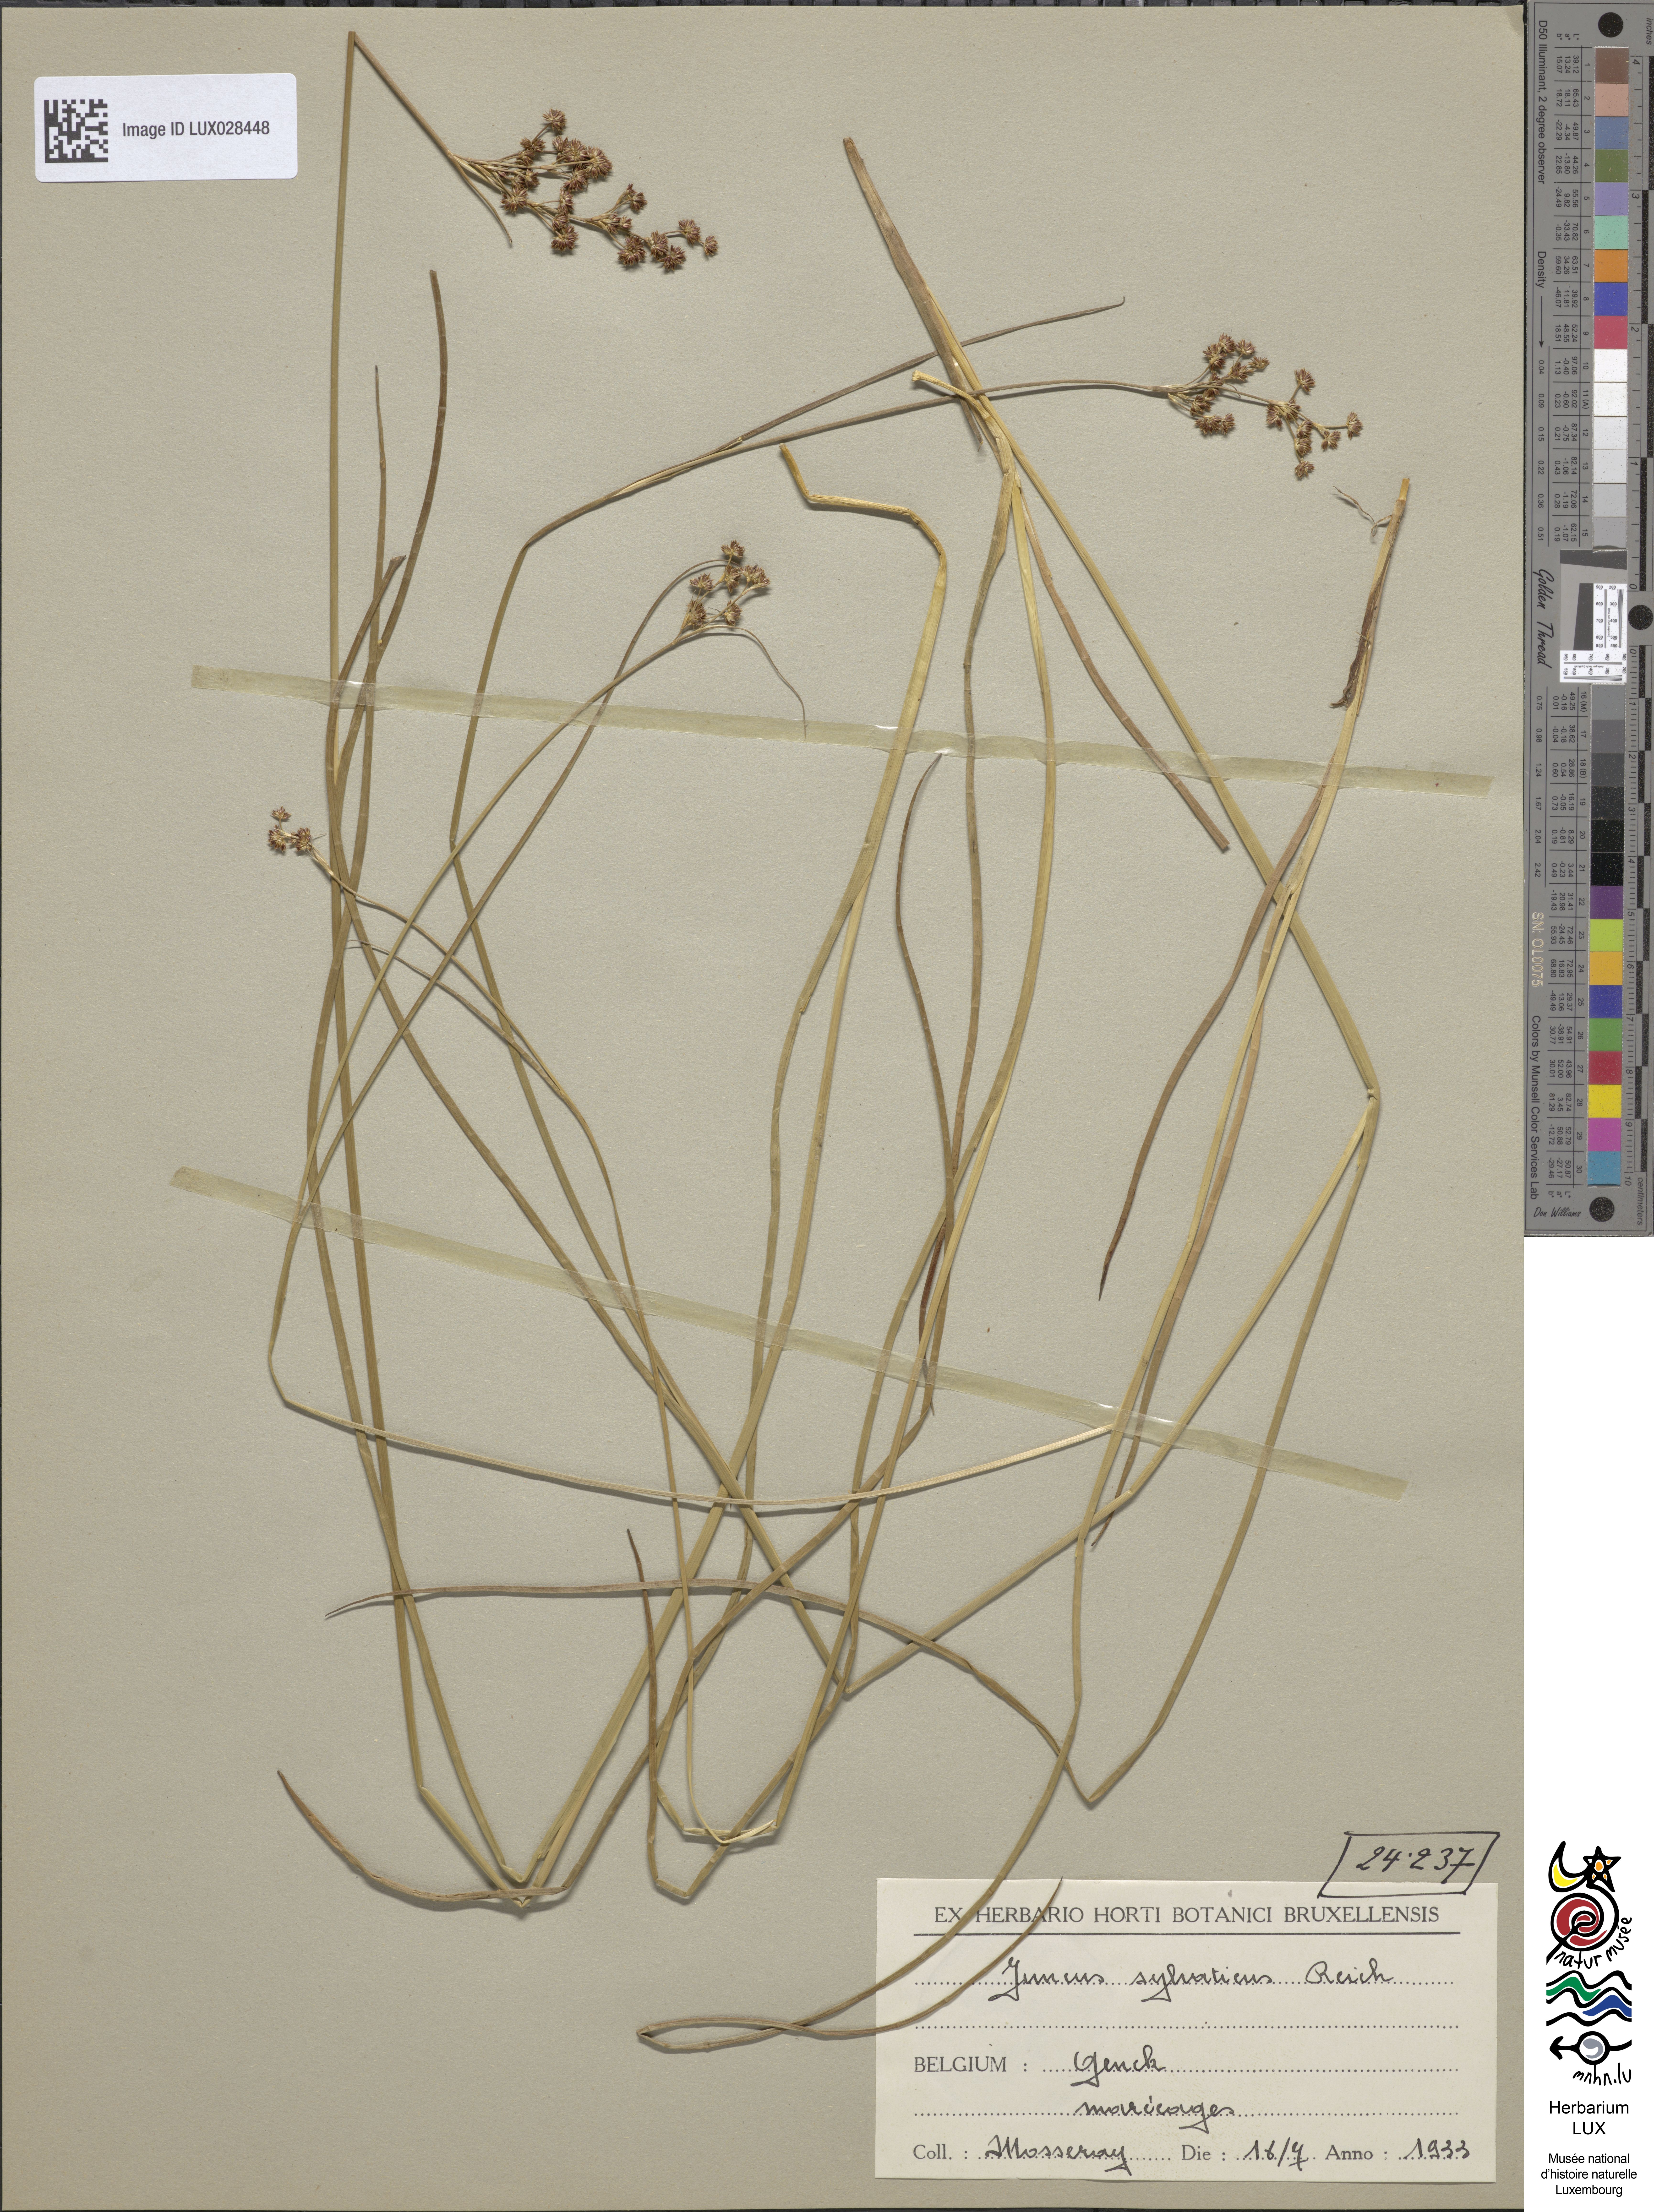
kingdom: Plantae
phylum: Tracheophyta
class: Liliopsida
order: Poales
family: Juncaceae
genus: Juncus
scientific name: Juncus acutiflorus
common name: Sharp-flowered rush
